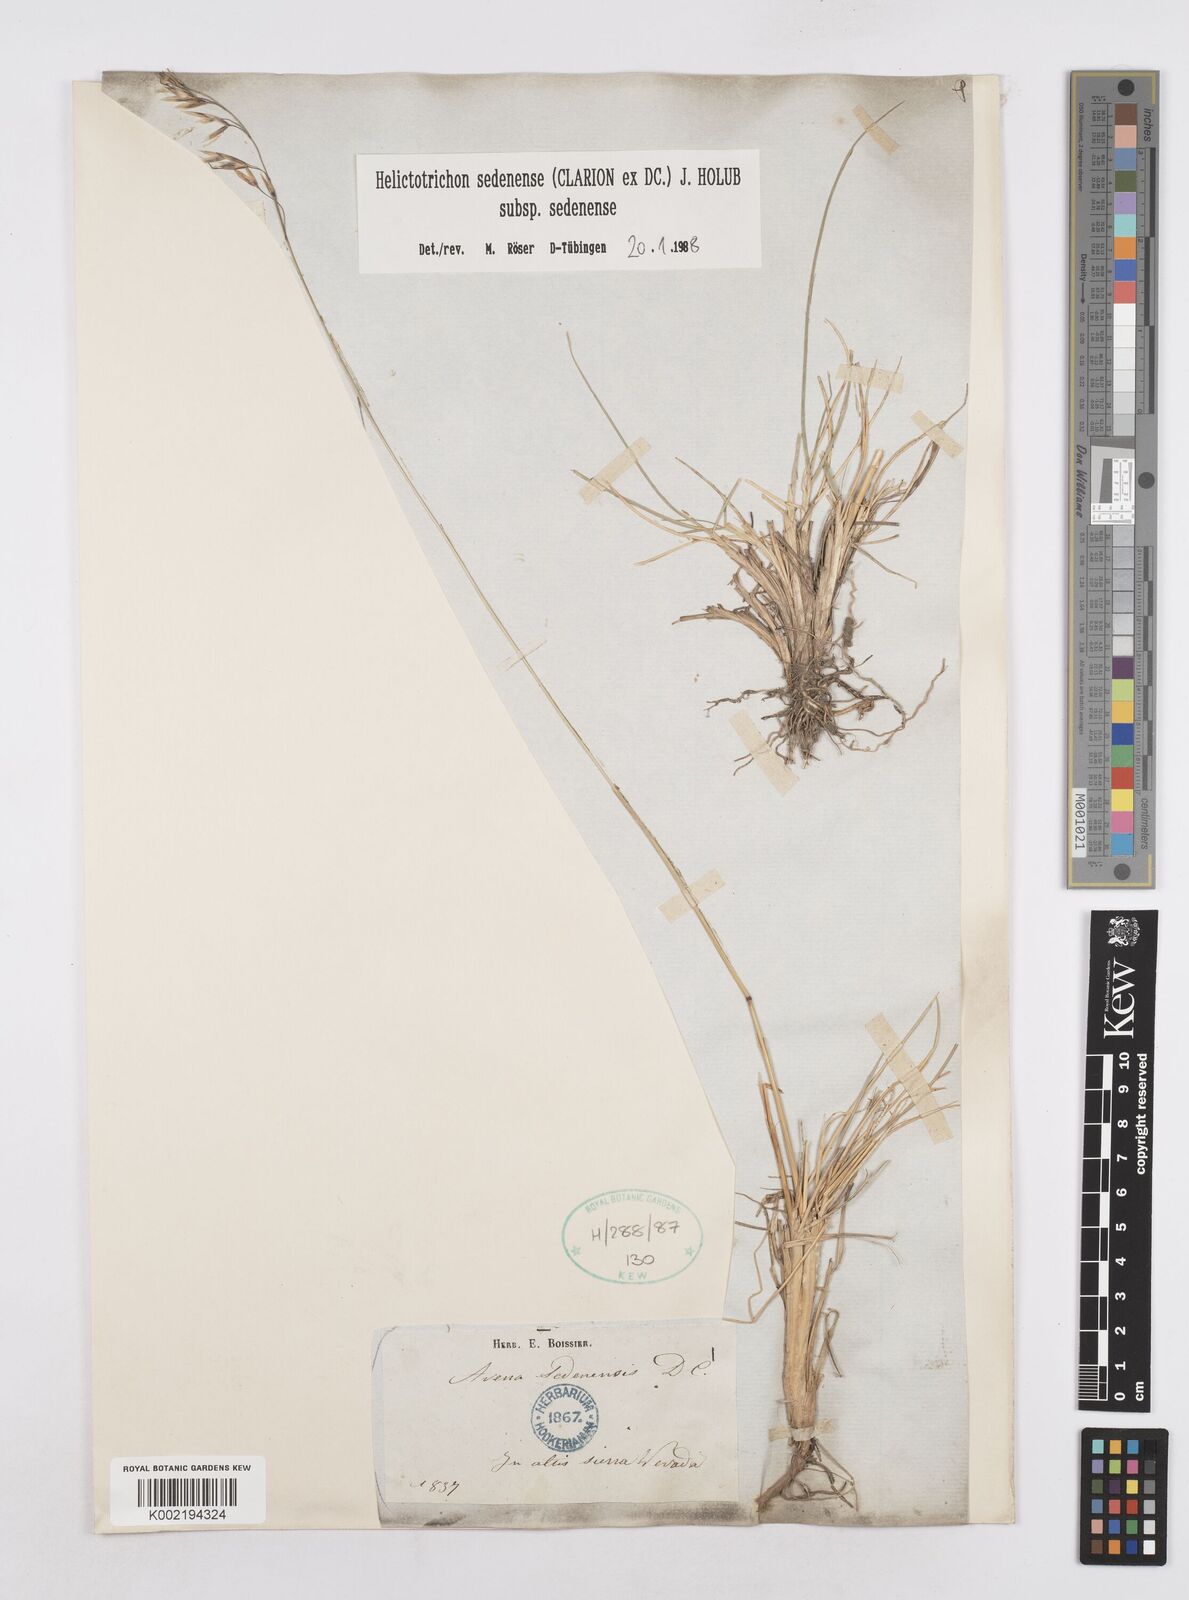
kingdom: Plantae
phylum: Tracheophyta
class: Liliopsida
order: Poales
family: Poaceae
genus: Helictotrichon
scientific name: Helictotrichon sedenense
